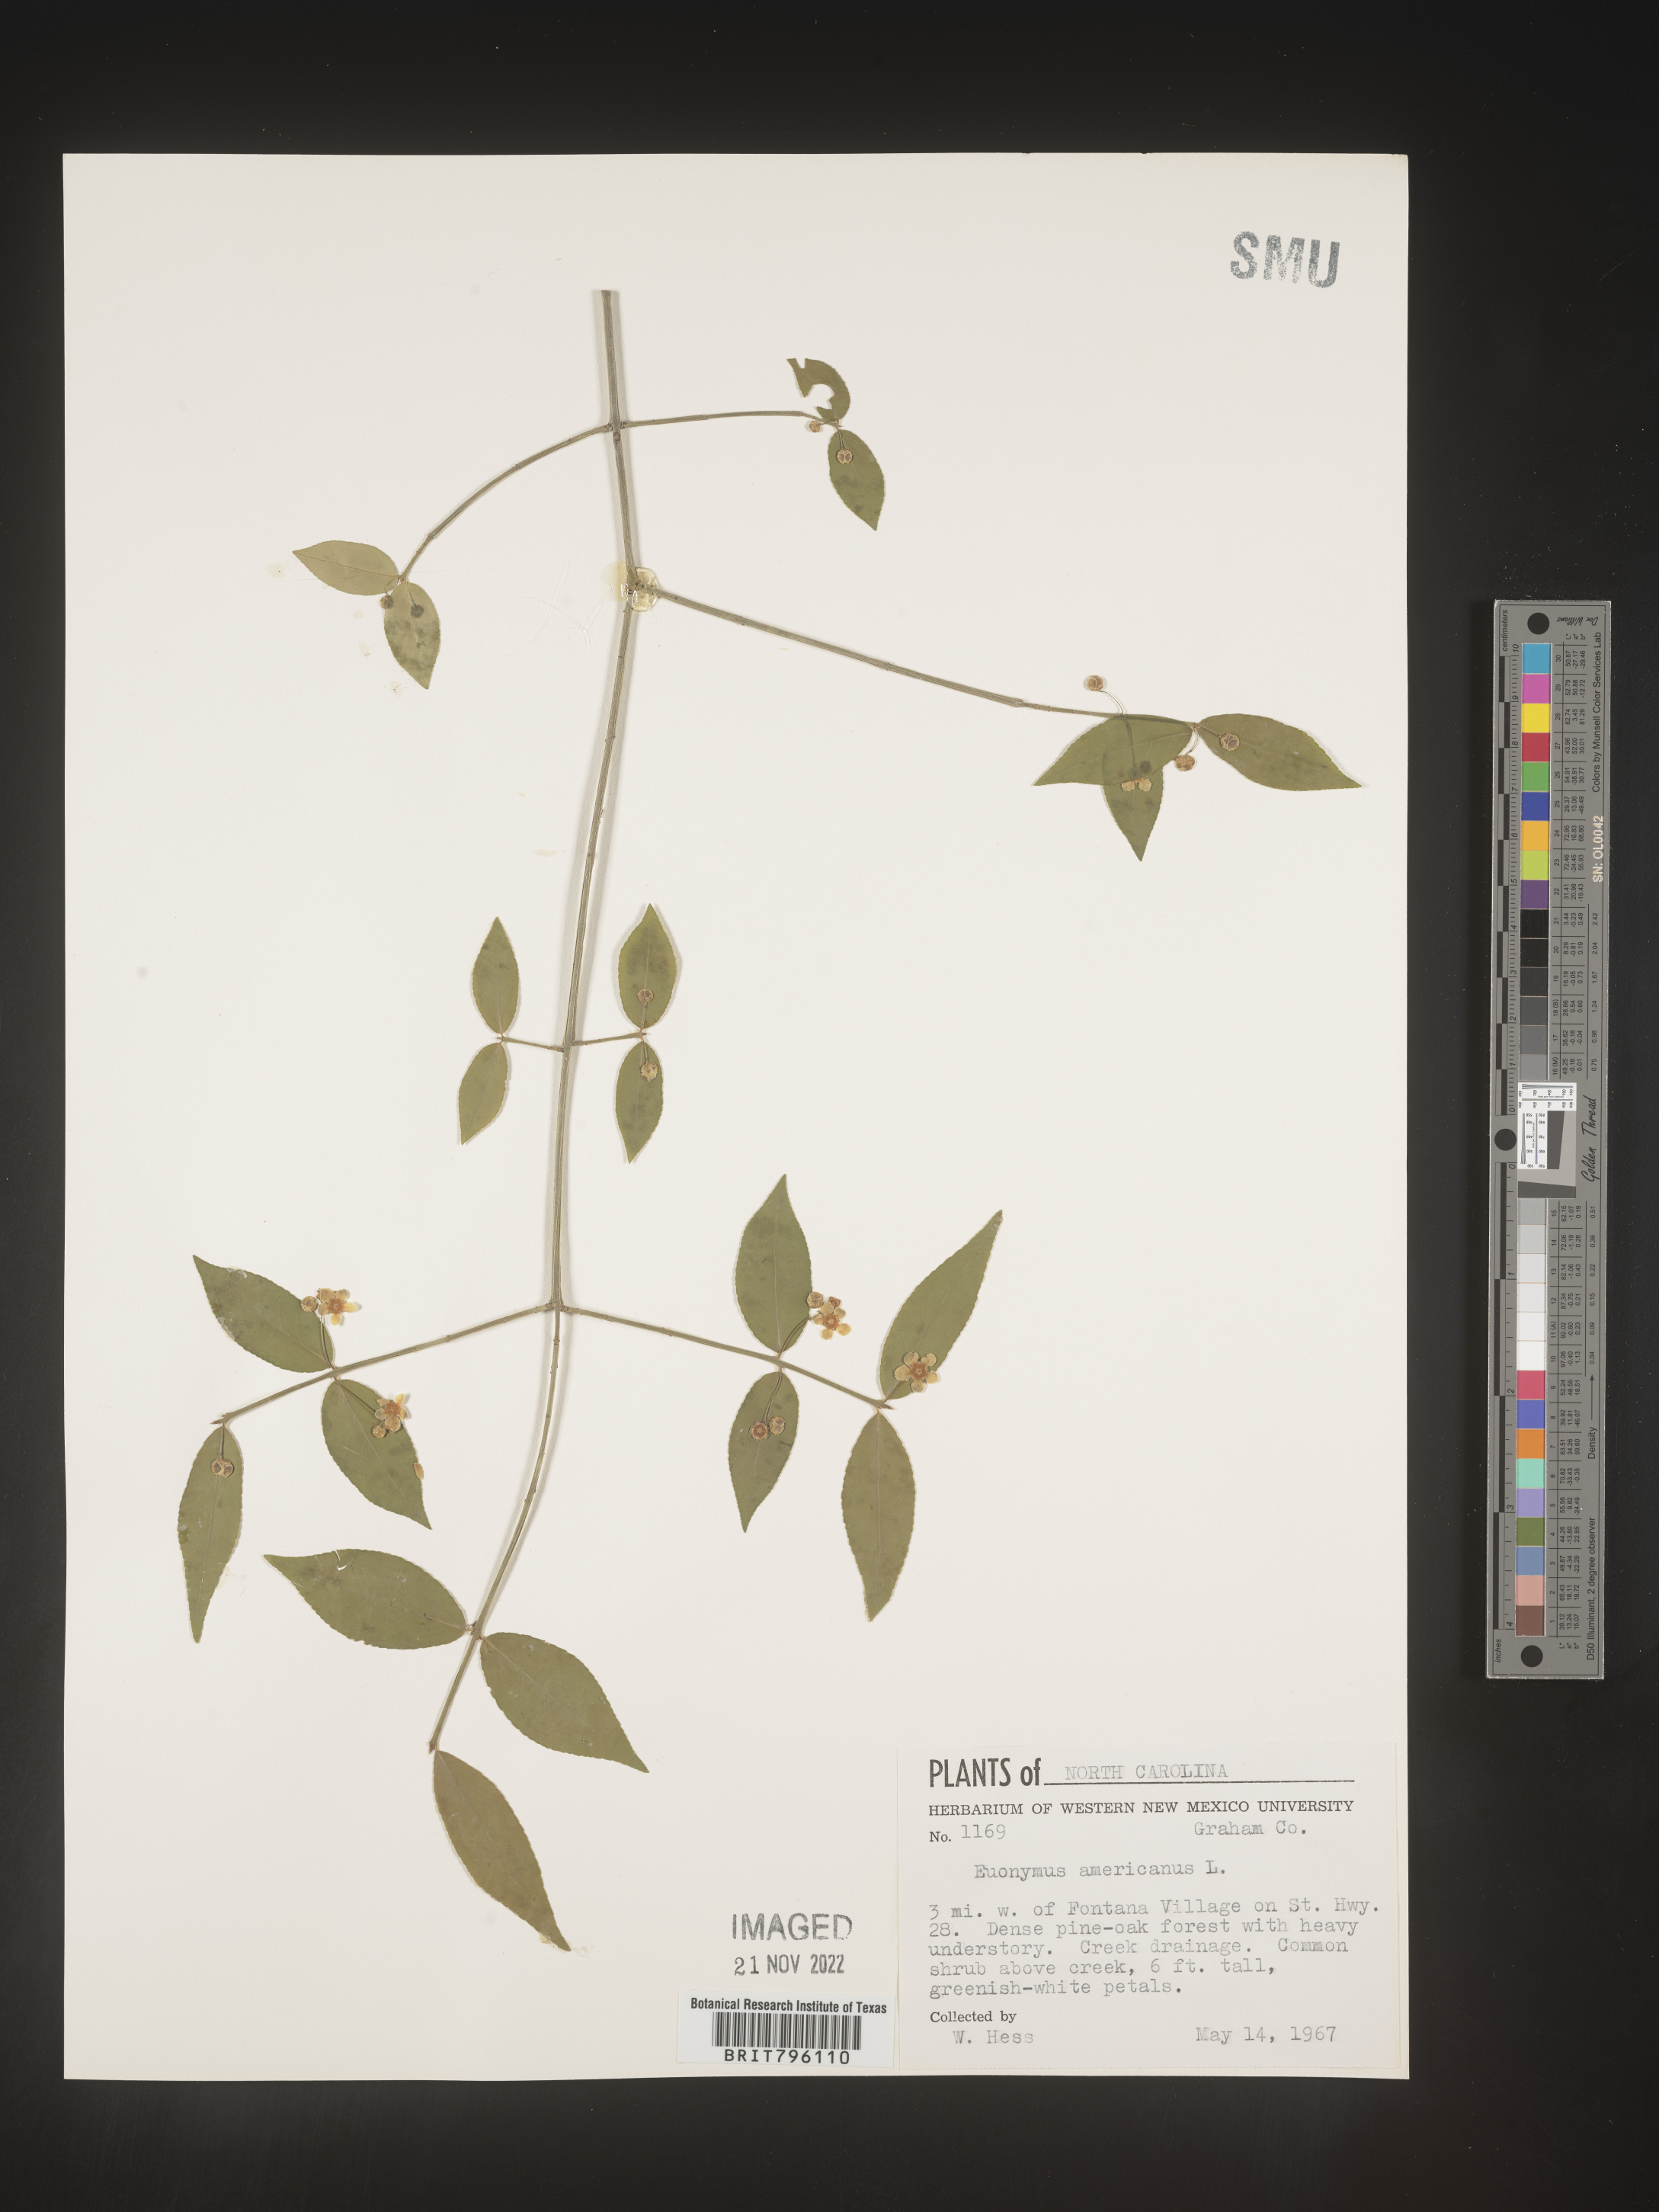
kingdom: Plantae
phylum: Tracheophyta
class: Magnoliopsida
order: Celastrales
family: Celastraceae
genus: Euonymus
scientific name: Euonymus americanus
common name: Bursting-heart
